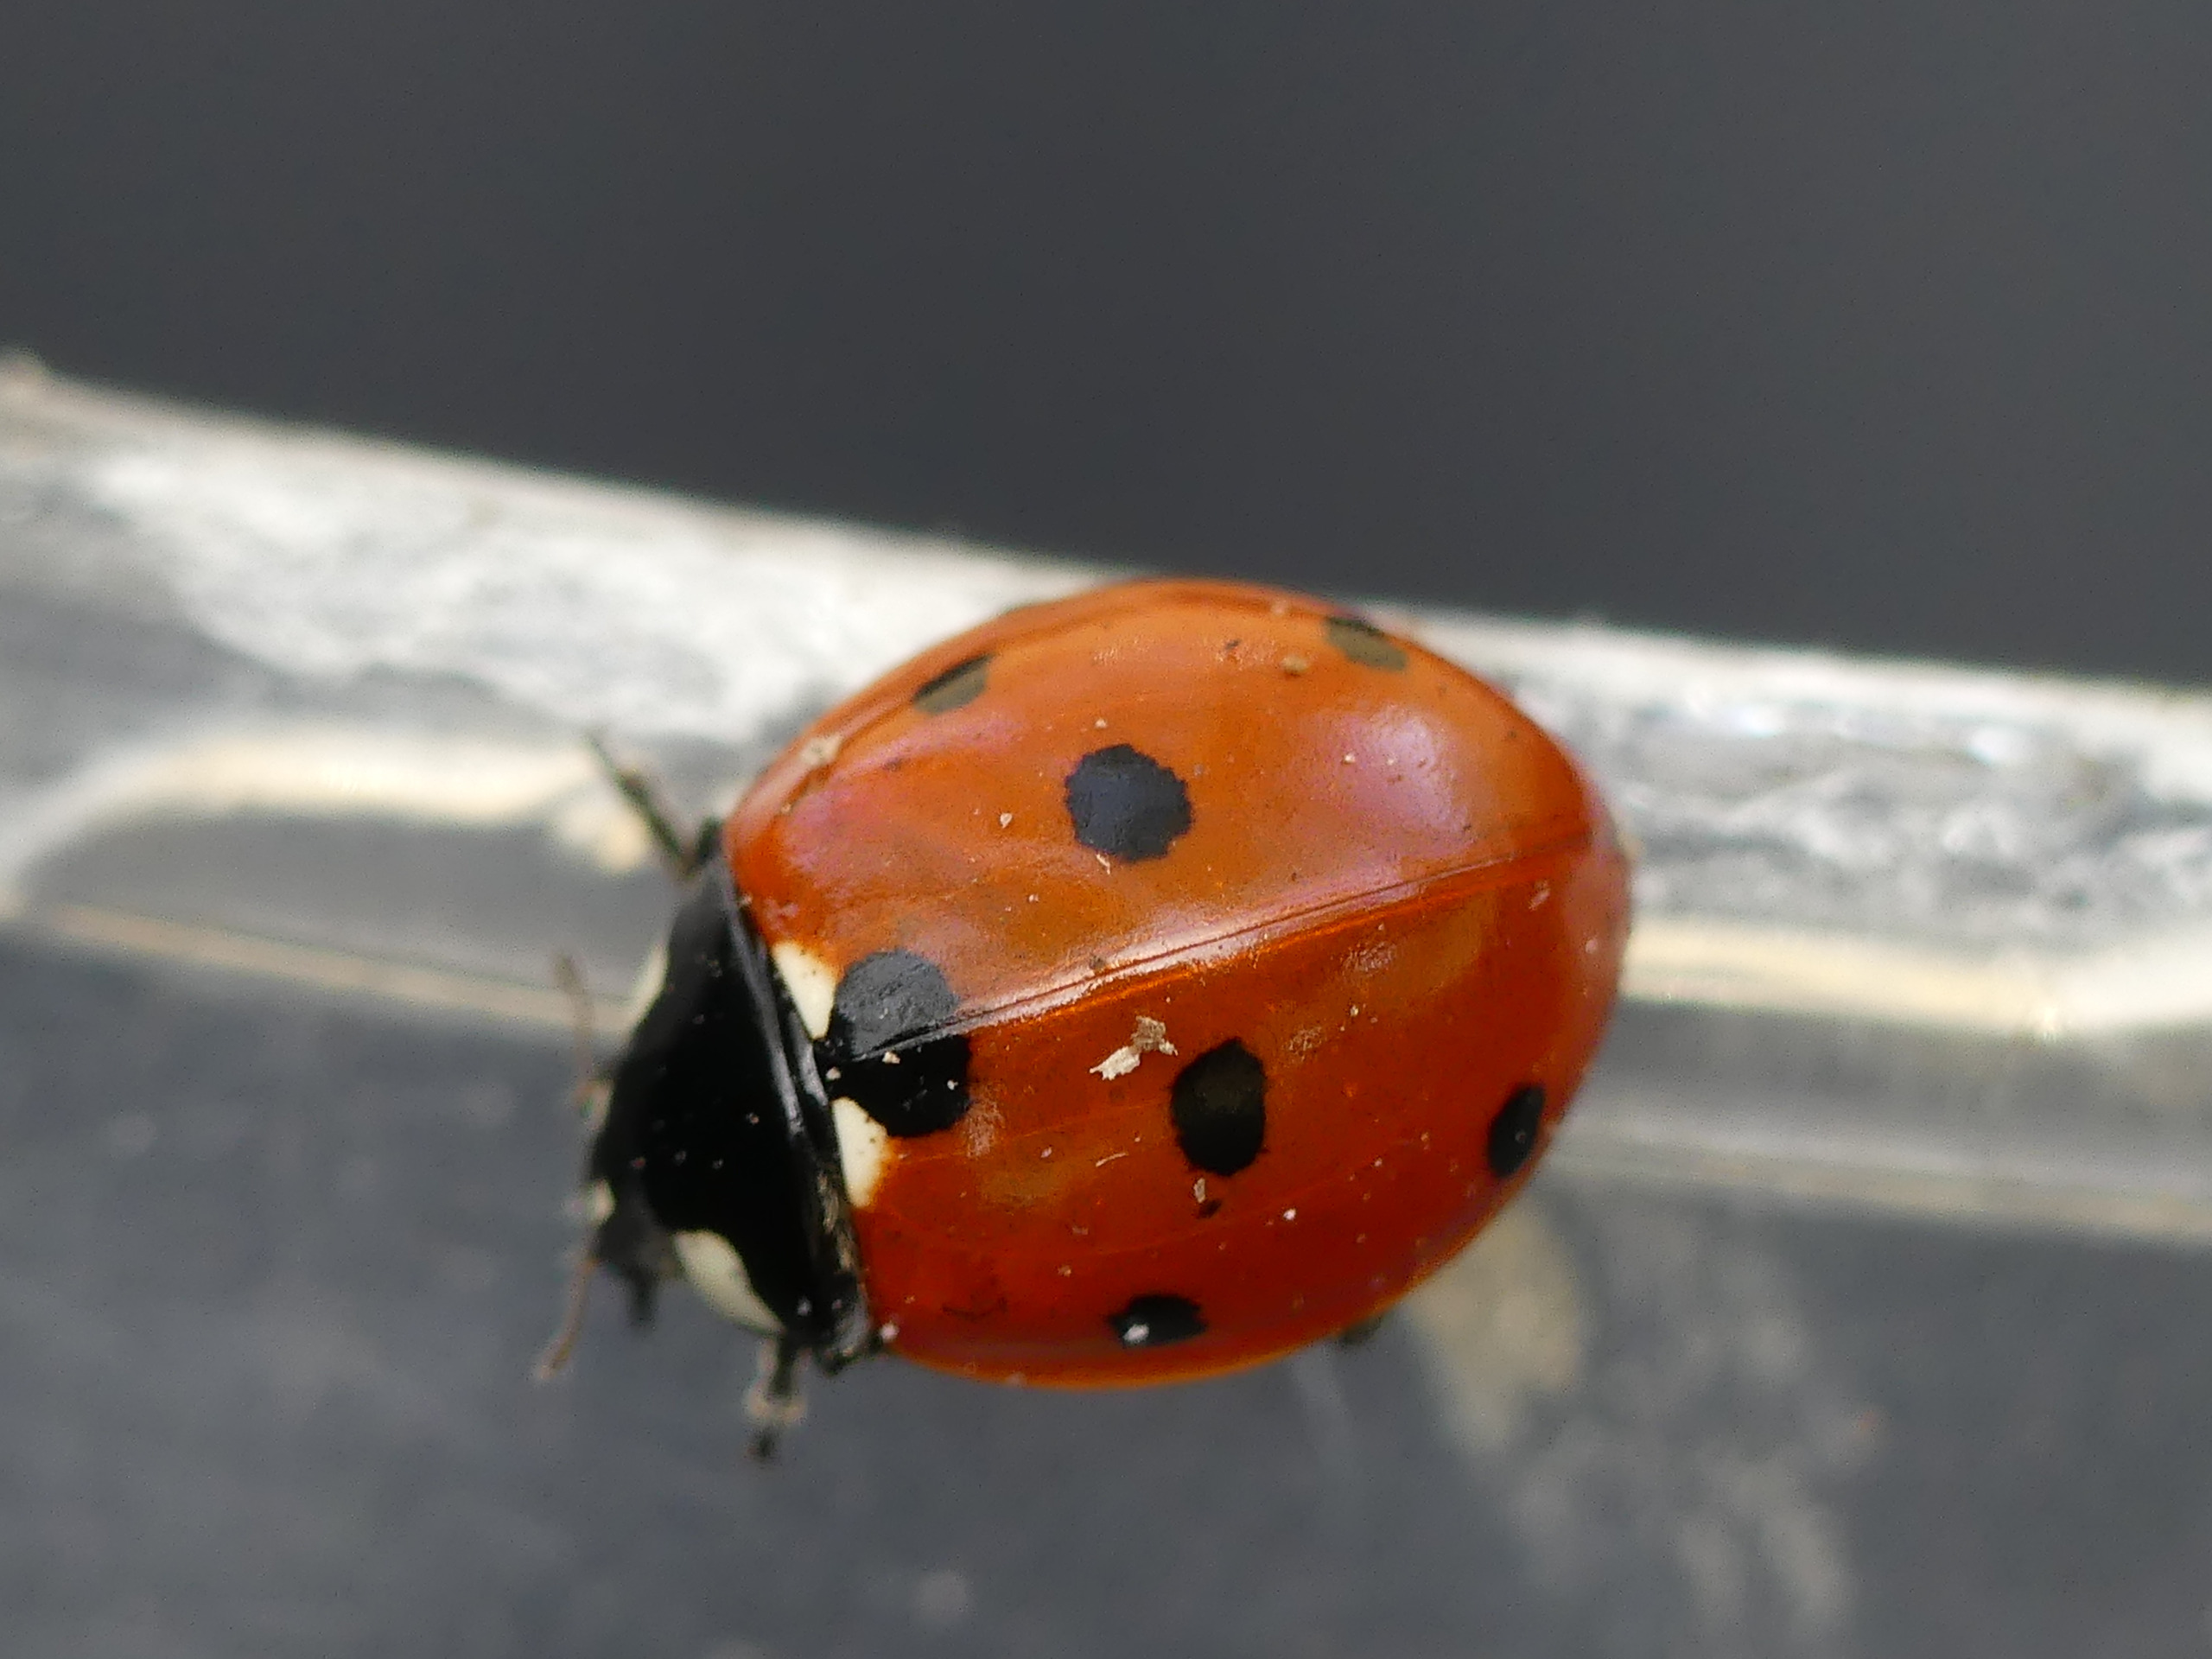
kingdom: Animalia
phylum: Arthropoda
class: Insecta
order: Coleoptera
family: Coccinellidae
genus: Coccinella
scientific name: Coccinella septempunctata
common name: Syvplettet mariehøne
